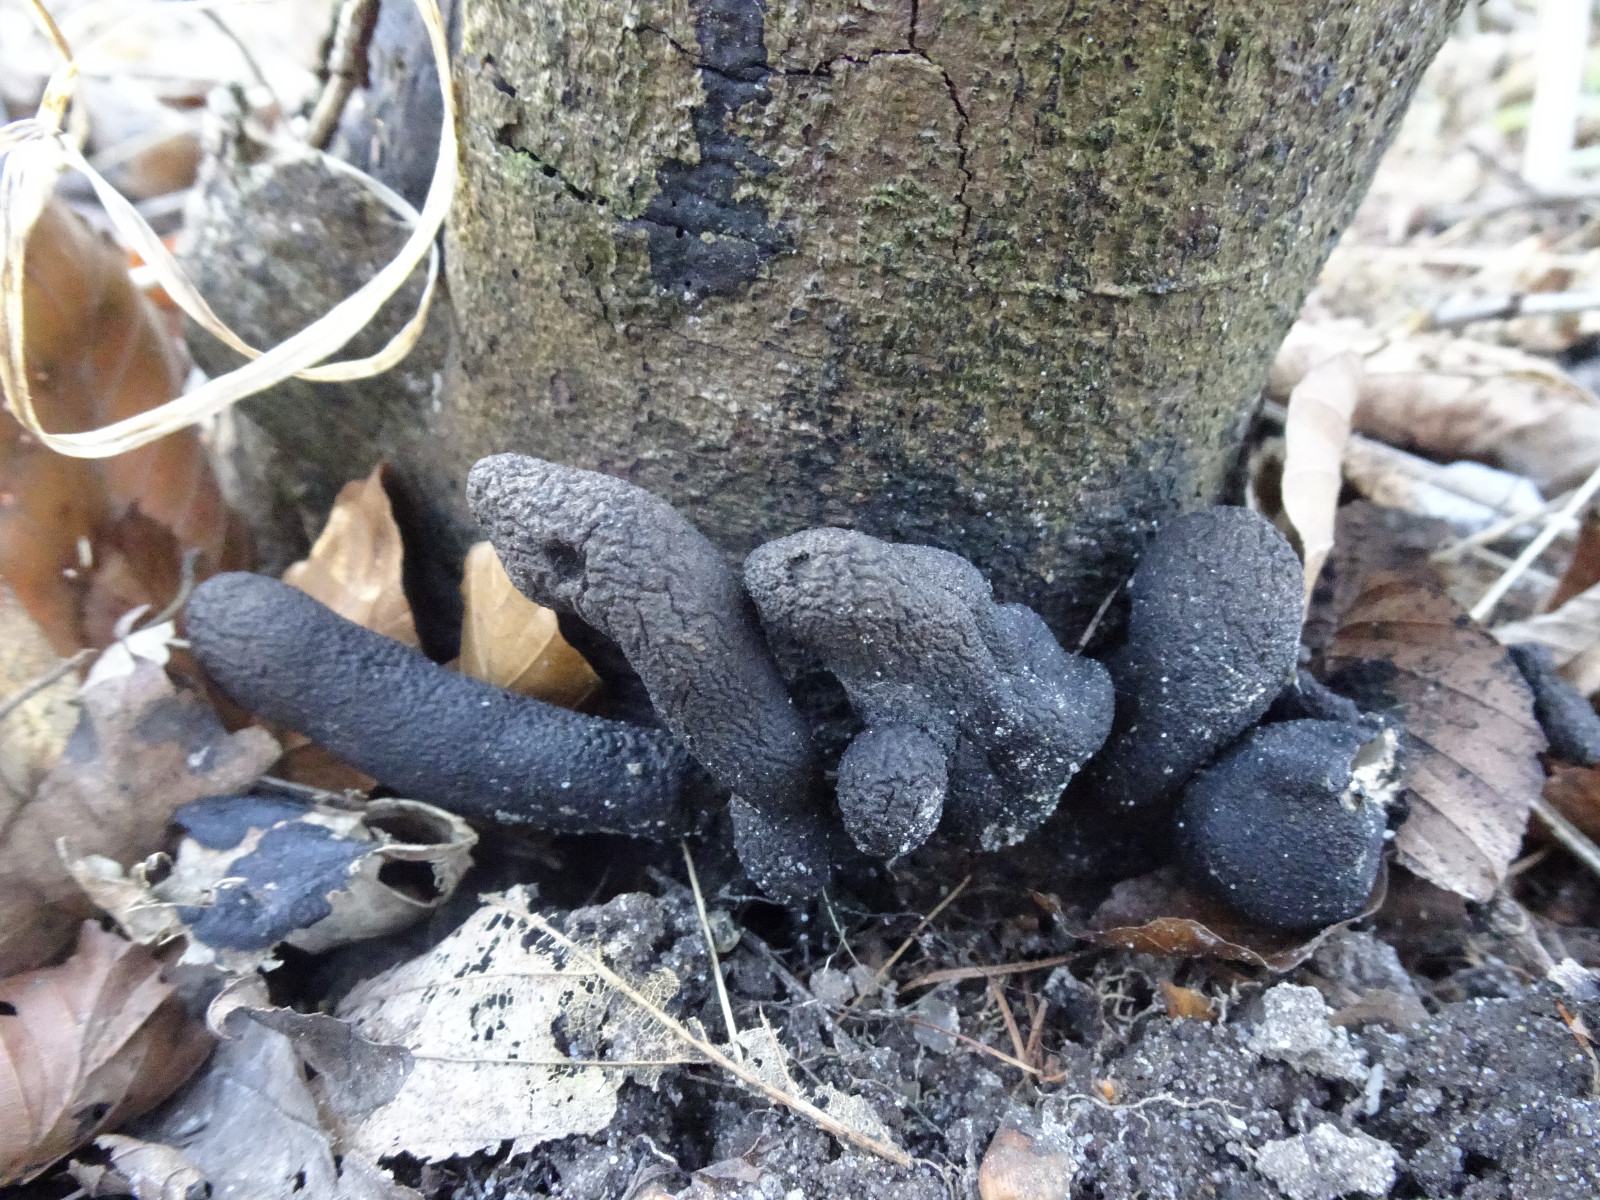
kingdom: Fungi
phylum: Ascomycota
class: Sordariomycetes
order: Xylariales
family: Xylariaceae
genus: Xylaria
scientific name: Xylaria polymorpha
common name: kølle-stødsvamp
